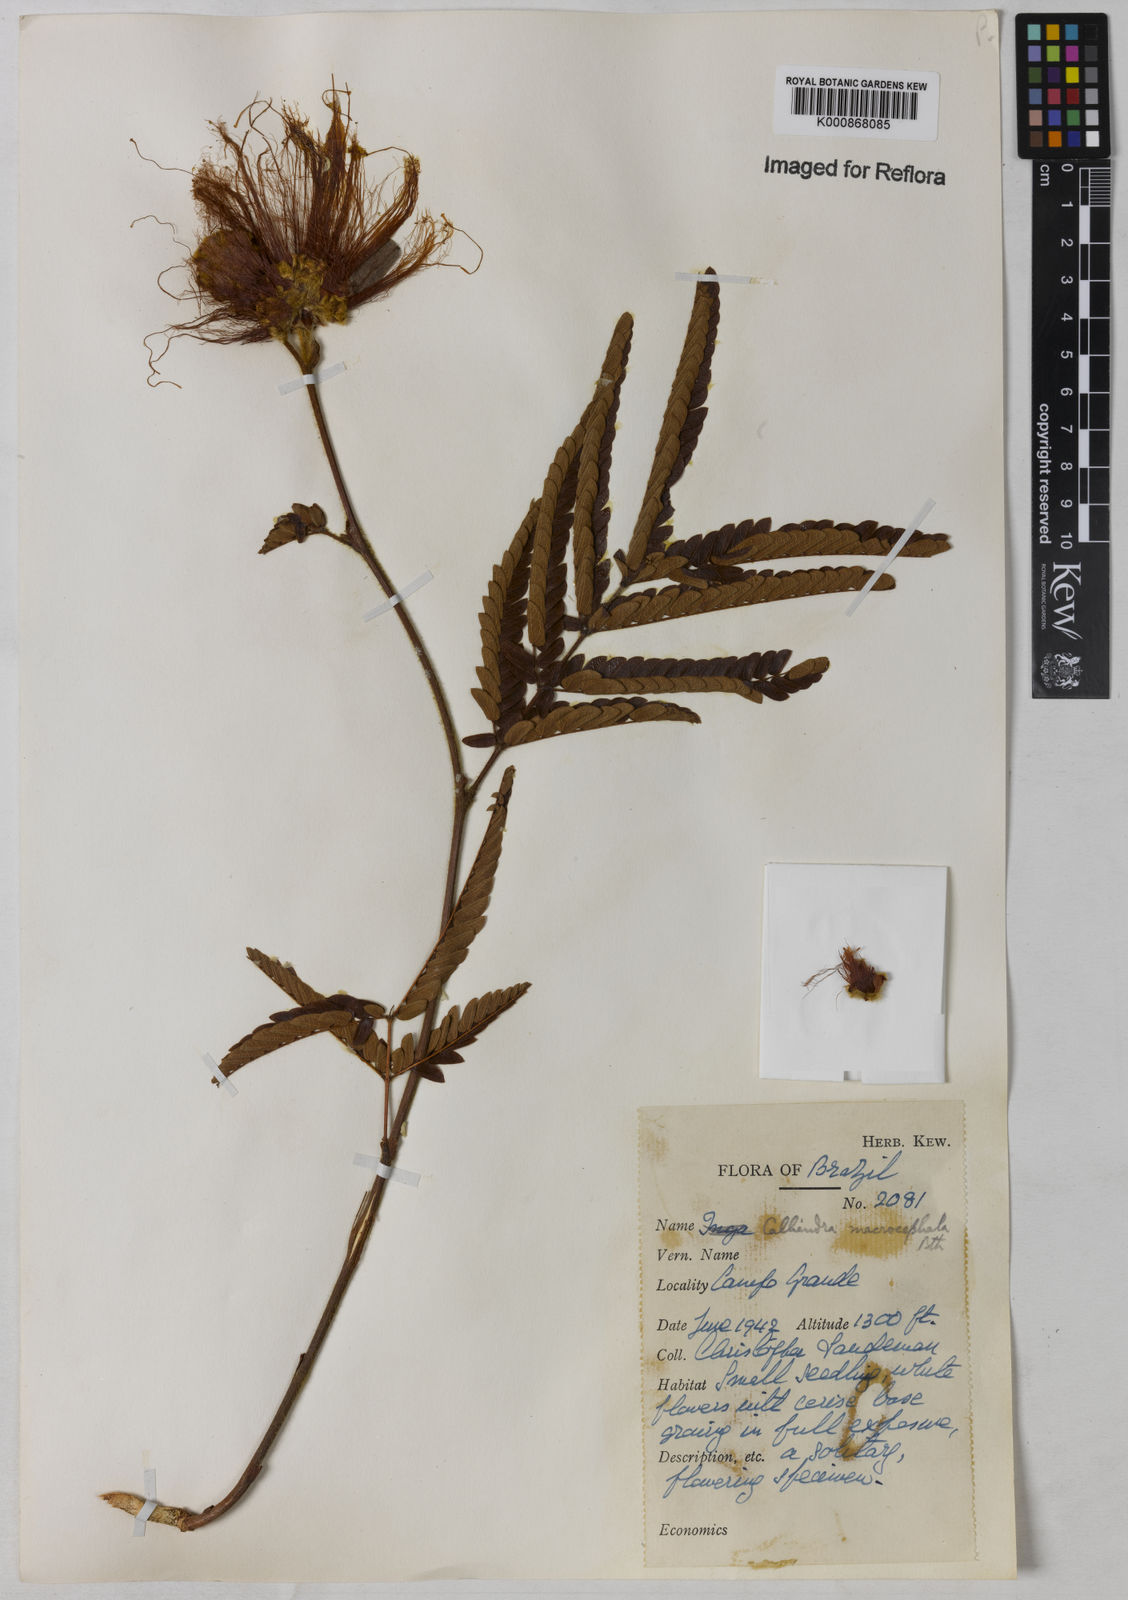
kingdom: Plantae
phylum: Tracheophyta
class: Magnoliopsida
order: Fabales
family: Fabaceae
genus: Calliandra
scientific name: Calliandra dysantha
